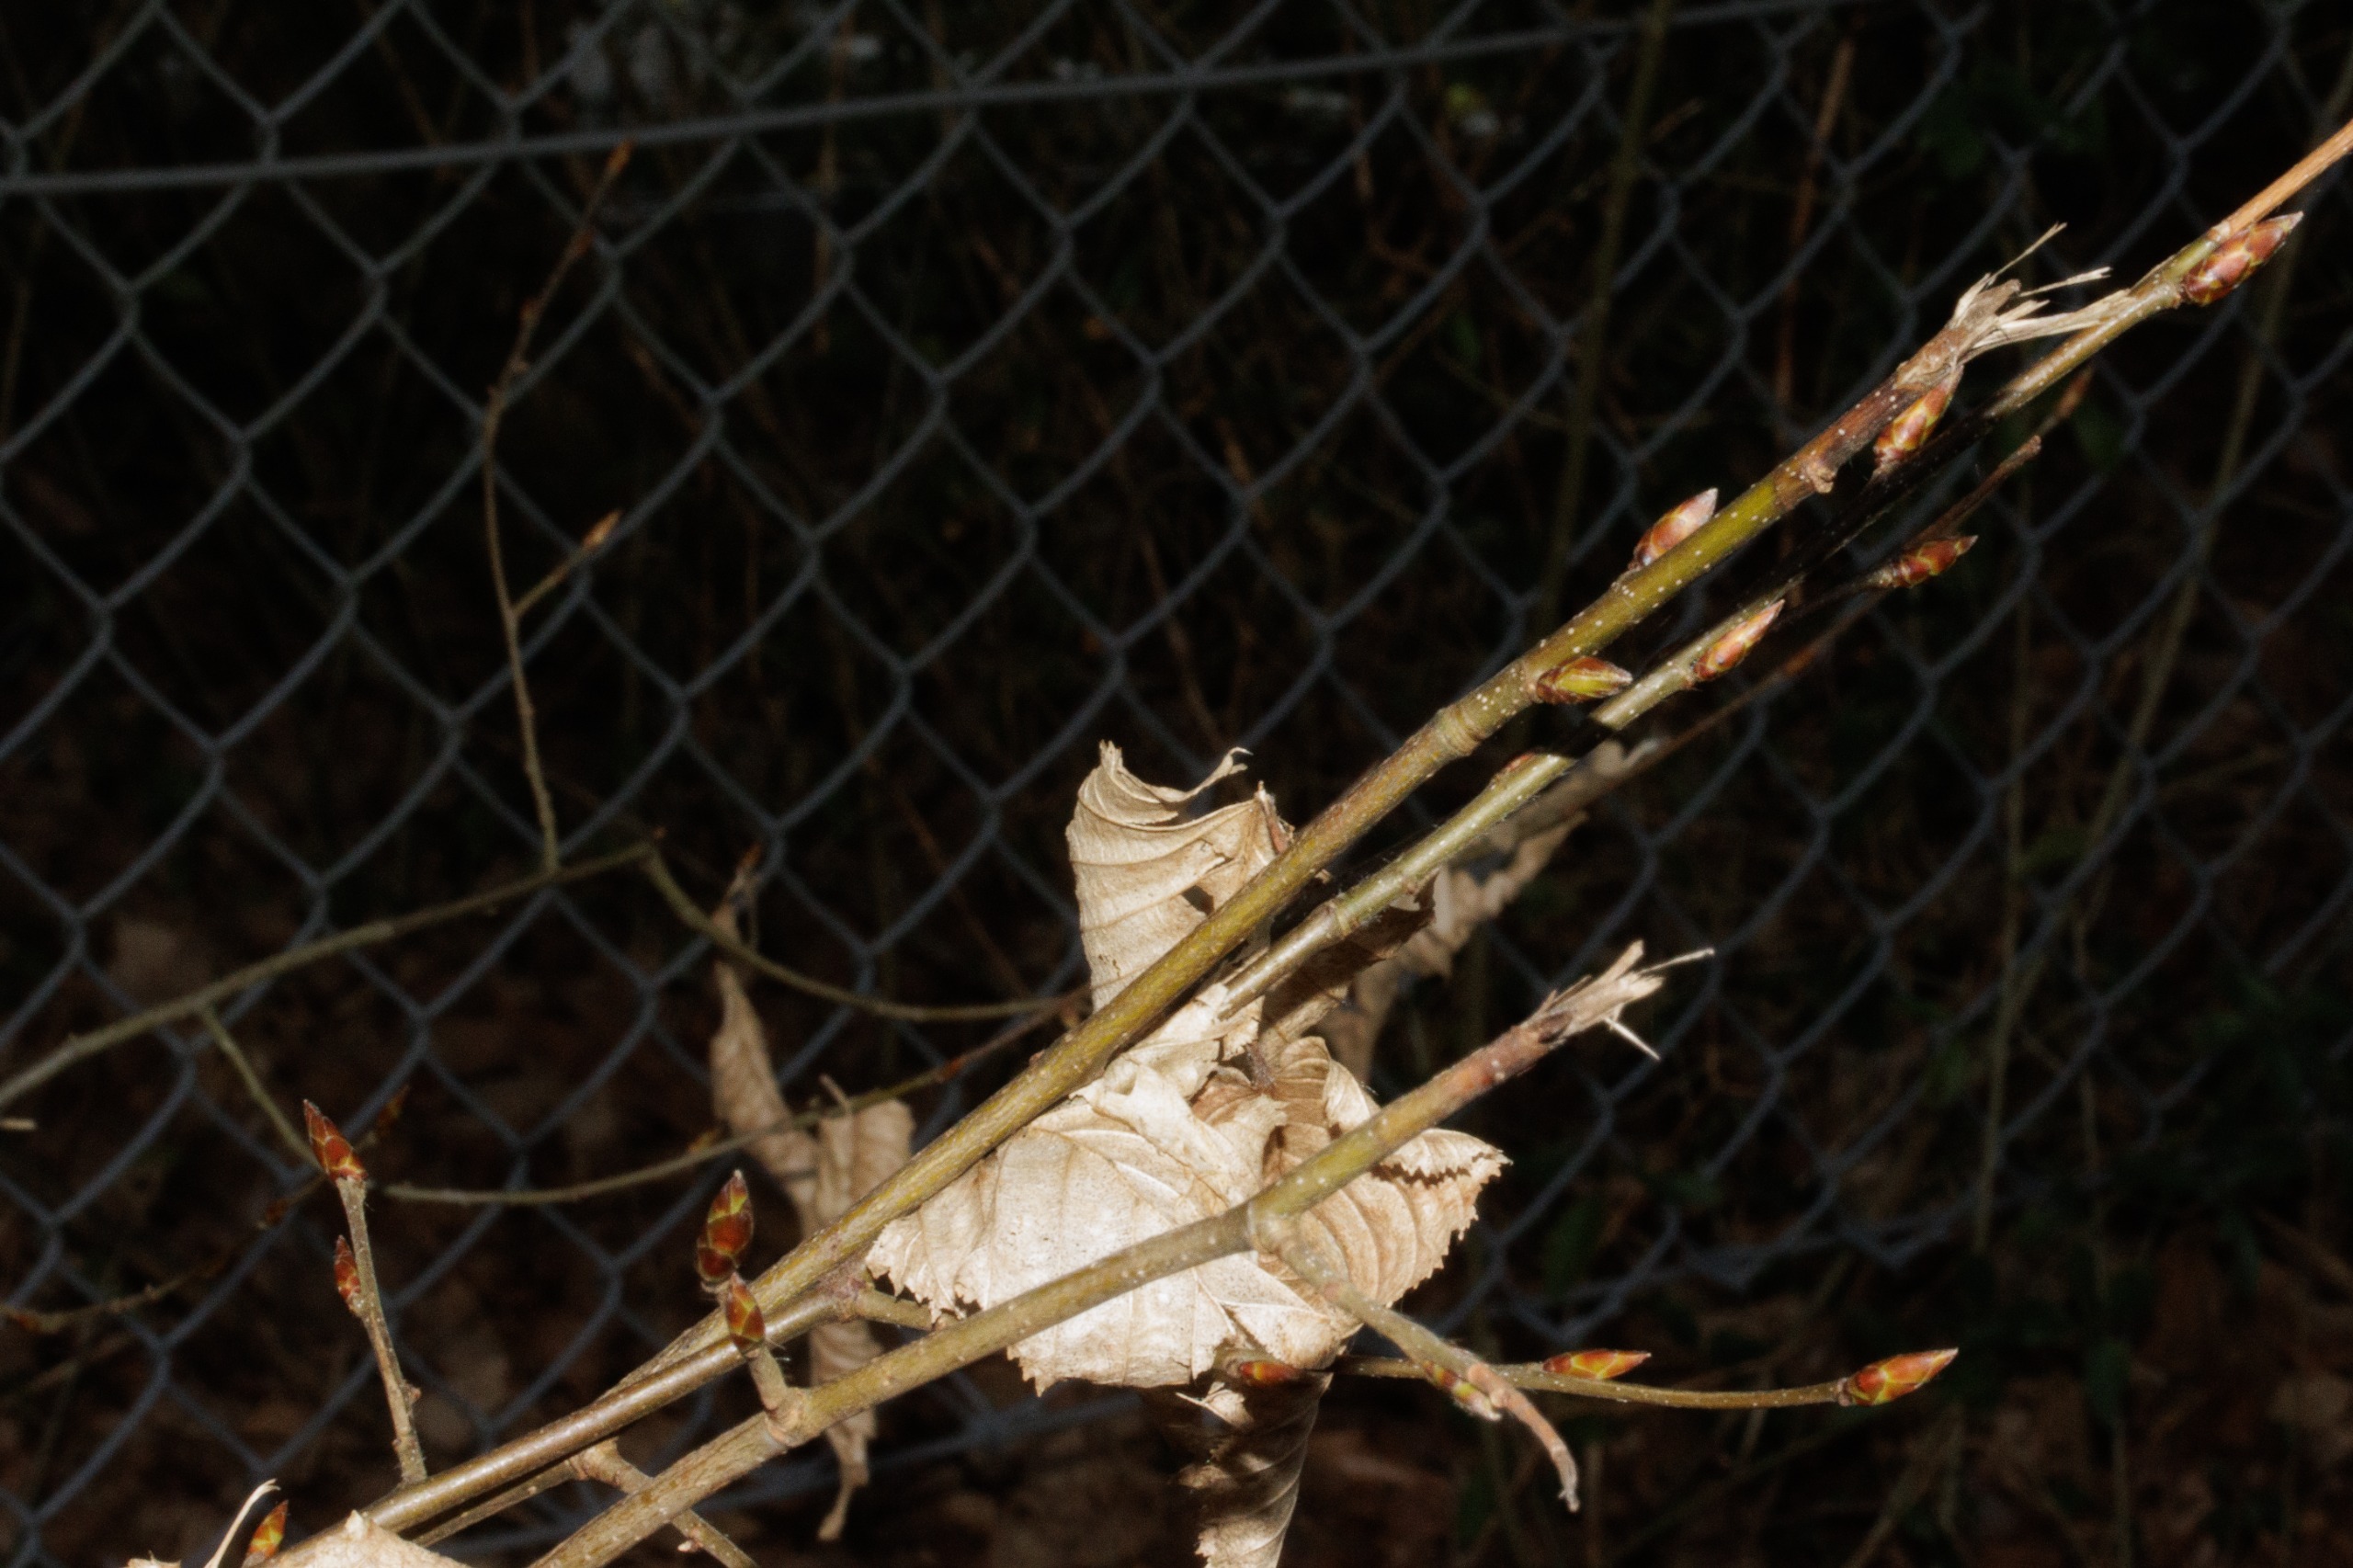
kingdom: Plantae
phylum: Tracheophyta
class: Magnoliopsida
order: Fagales
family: Betulaceae
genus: Carpinus
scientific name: Carpinus betulus
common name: Avnbøg
